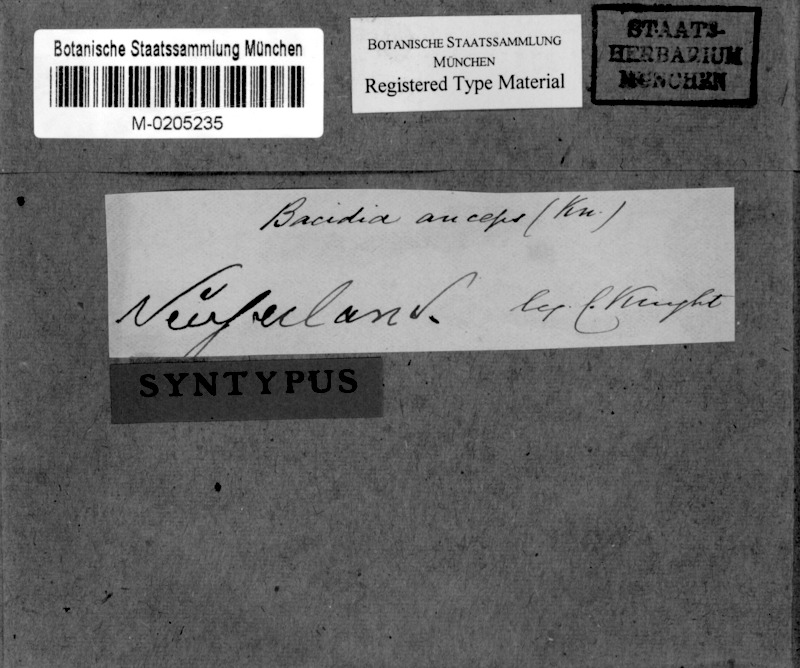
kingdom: Fungi
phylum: Ascomycota
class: Lecanoromycetes
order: Lecanorales
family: Ramalinaceae
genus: Bacidia
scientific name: Bacidia laurocerasi
